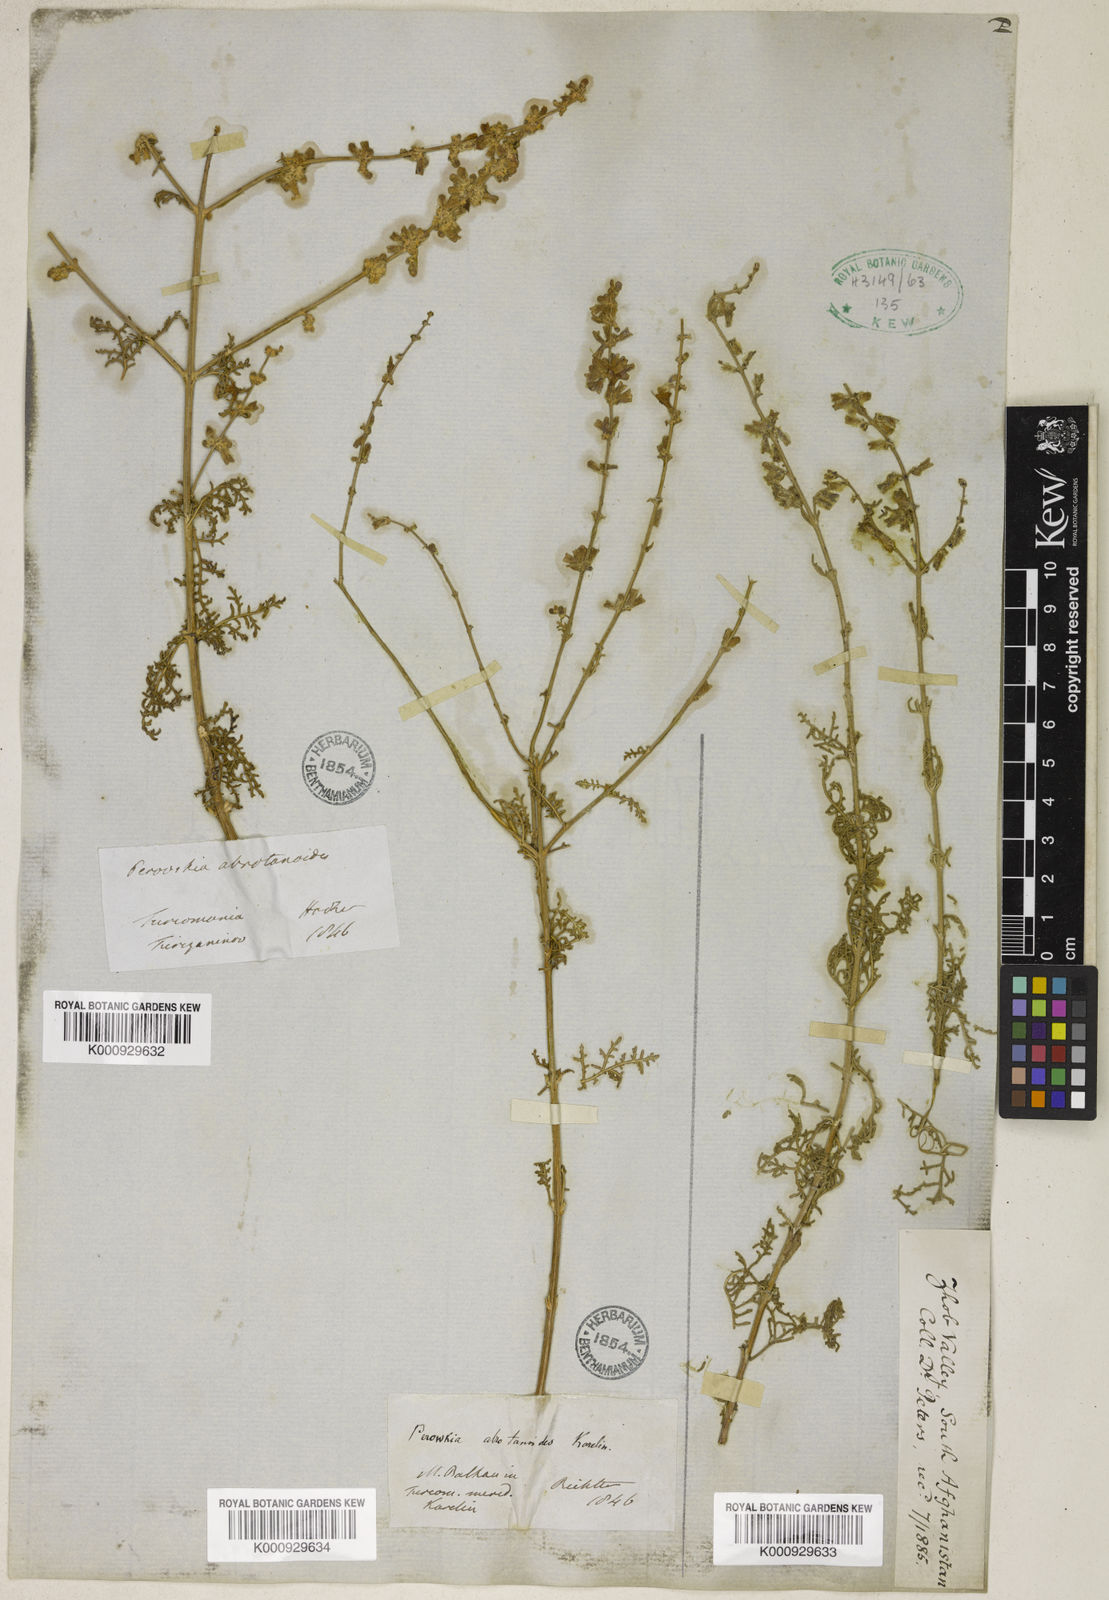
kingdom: Plantae
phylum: Tracheophyta
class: Magnoliopsida
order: Lamiales
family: Lamiaceae
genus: Salvia
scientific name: Salvia abrotanoides
